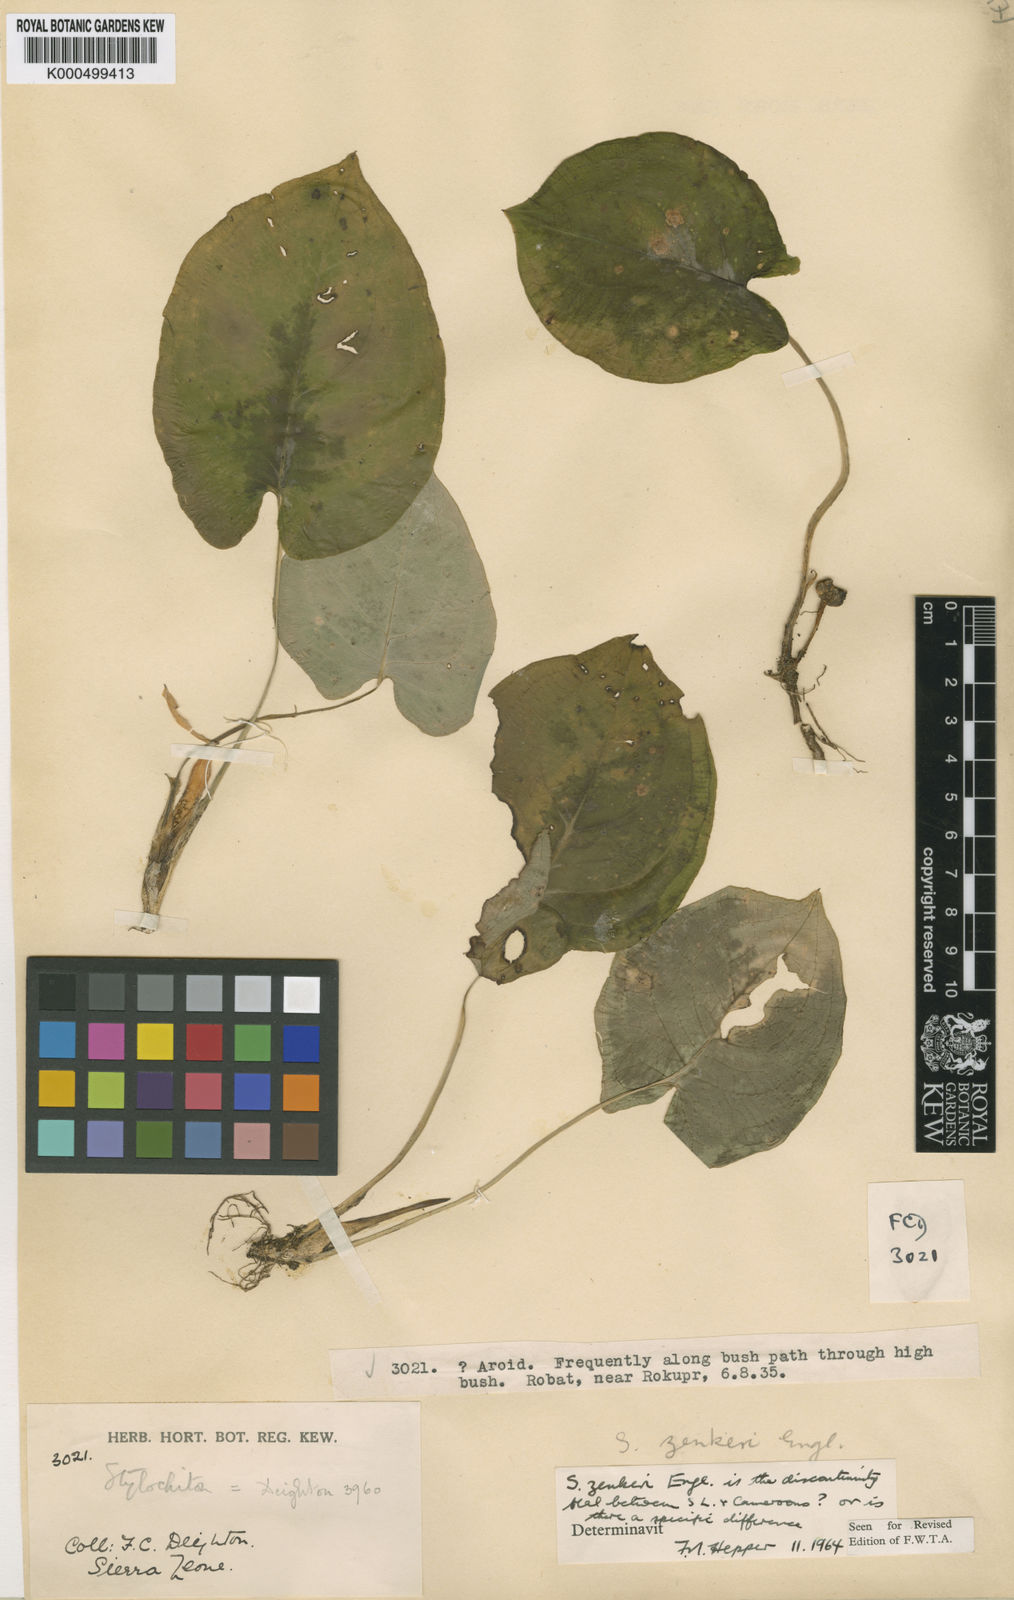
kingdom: Plantae
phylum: Tracheophyta
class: Liliopsida
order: Alismatales
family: Araceae
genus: Stylochaeton
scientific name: Stylochaeton zenkeri
